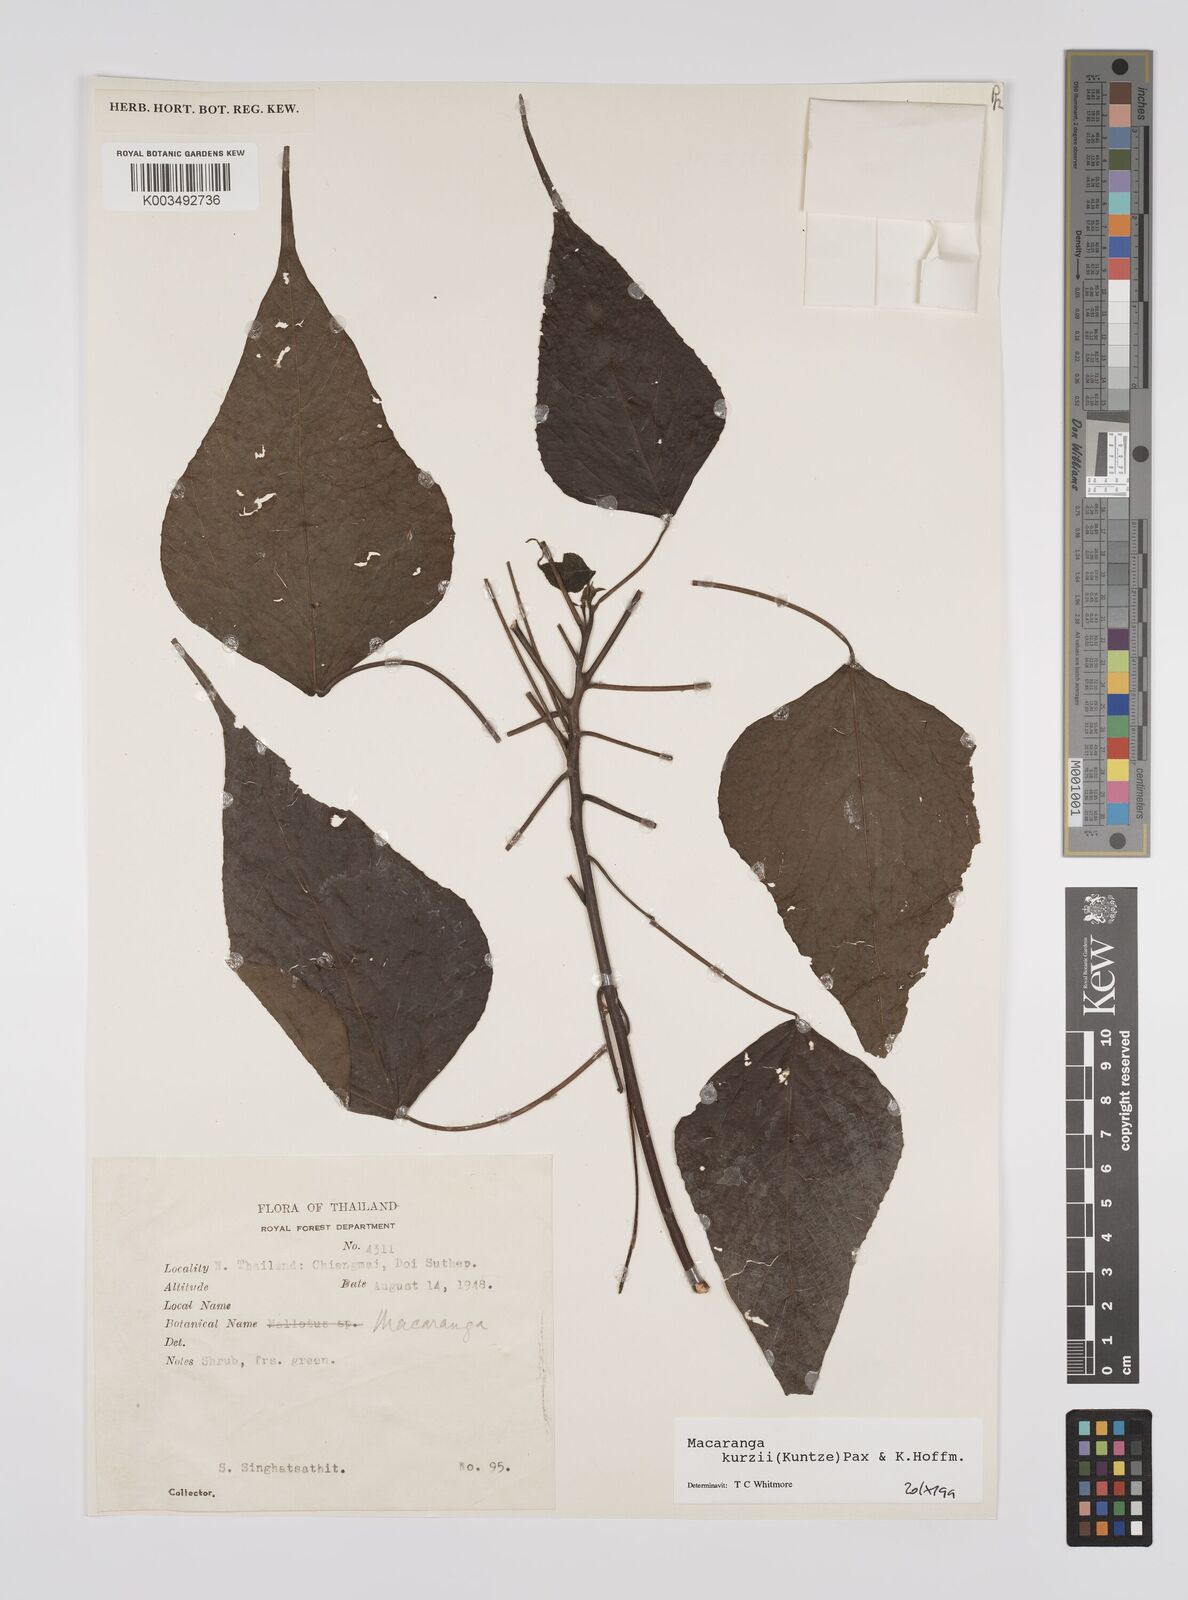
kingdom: Plantae
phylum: Tracheophyta
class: Magnoliopsida
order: Malpighiales
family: Euphorbiaceae
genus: Macaranga
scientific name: Macaranga kurzii
